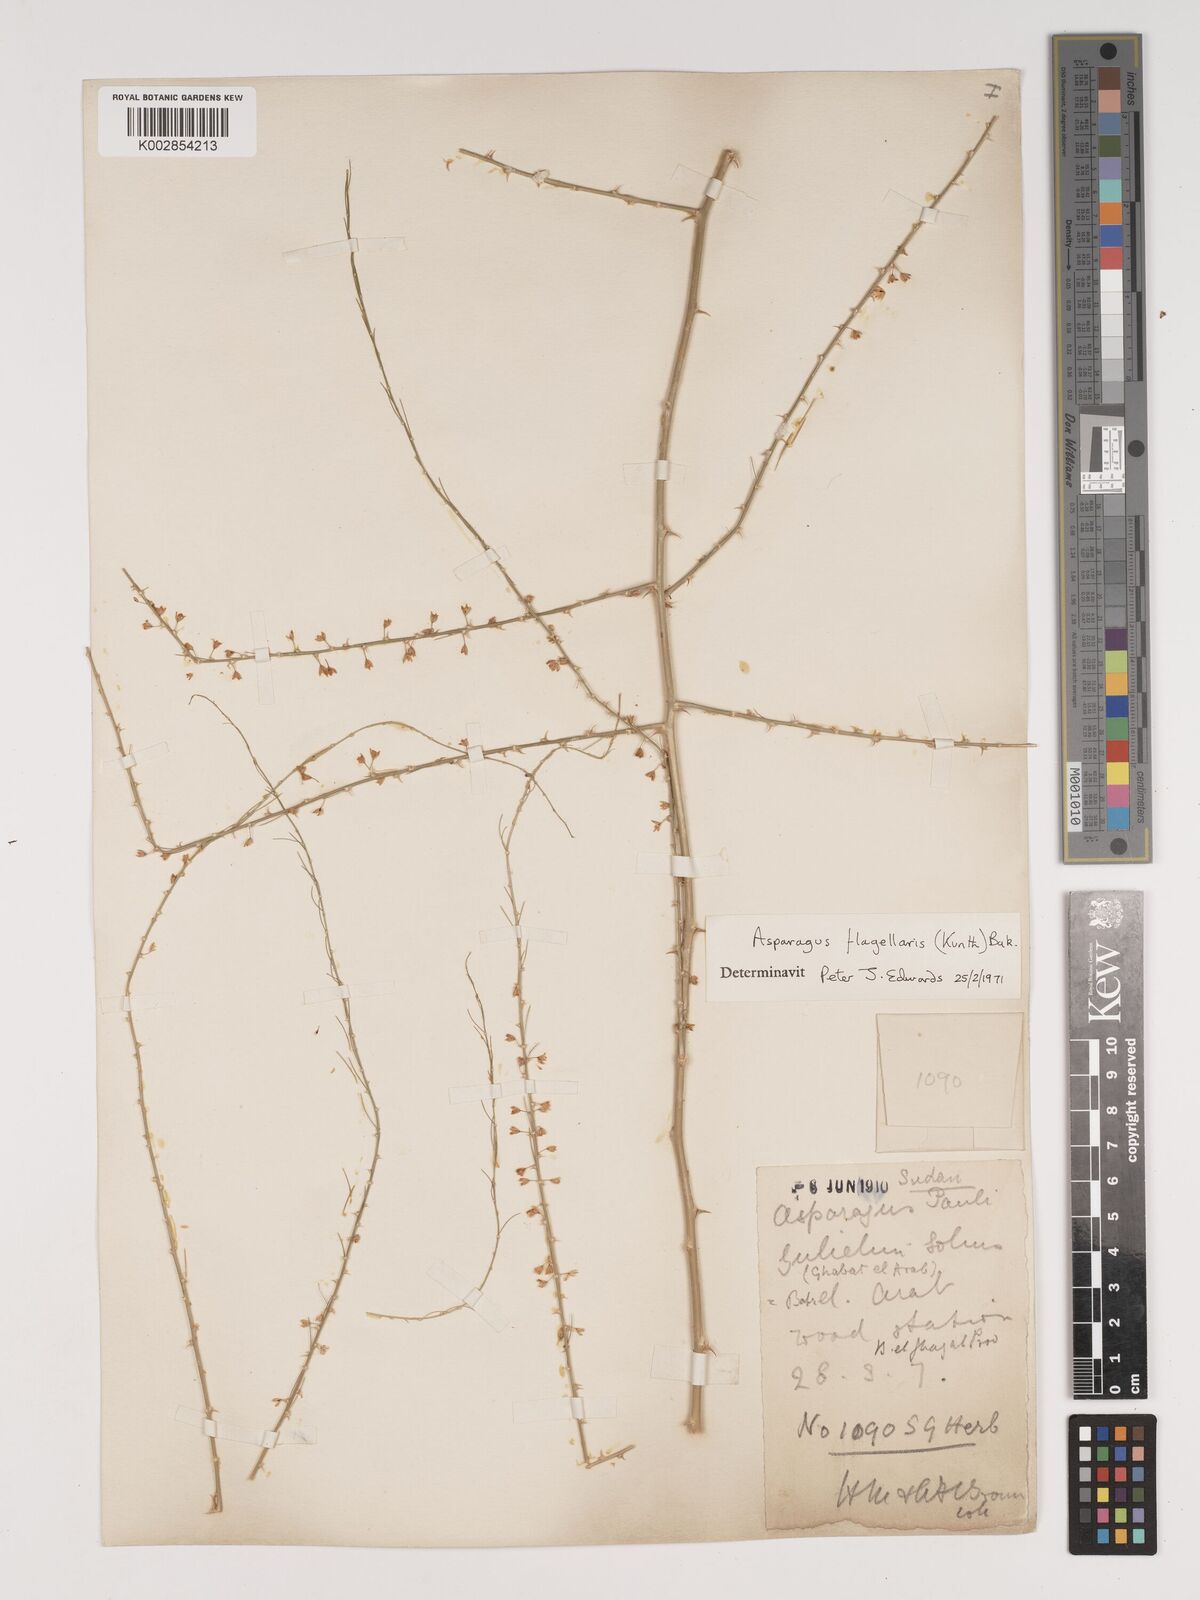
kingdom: Plantae
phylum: Tracheophyta
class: Liliopsida
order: Asparagales
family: Asparagaceae
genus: Asparagus
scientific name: Asparagus flagellaris
